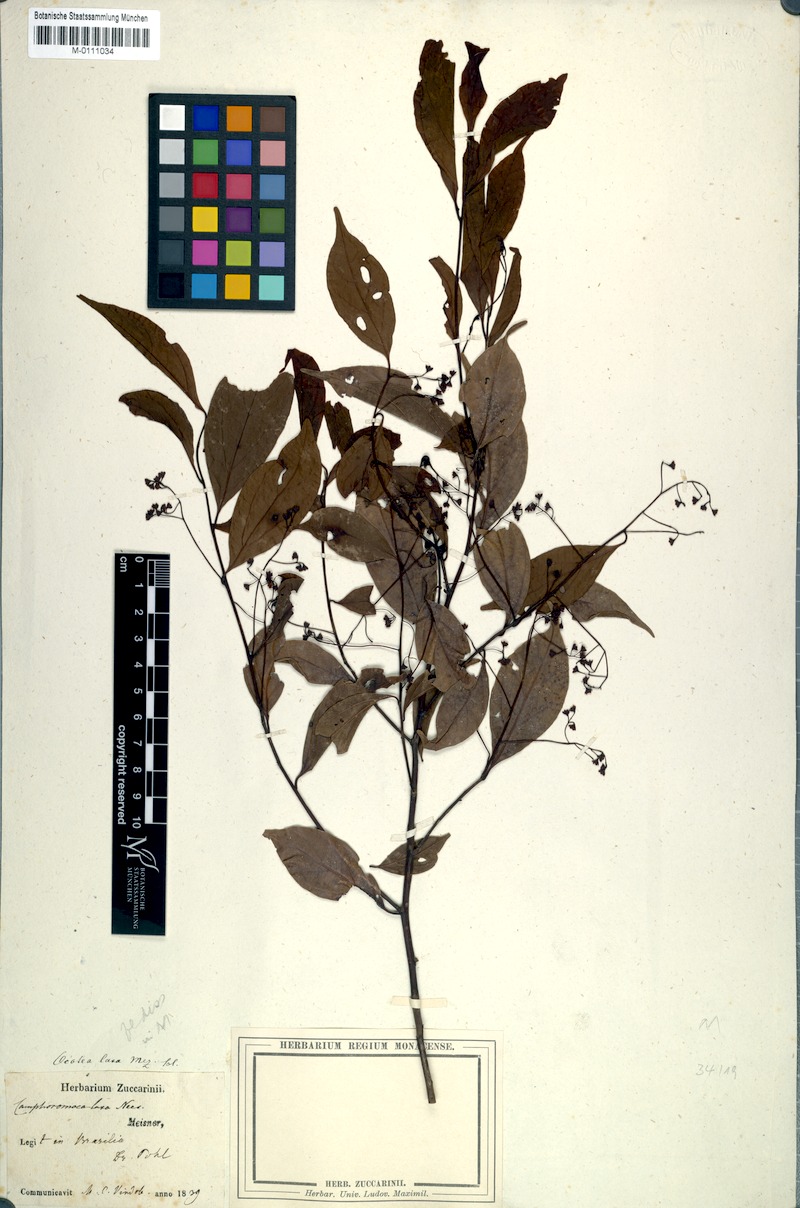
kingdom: Plantae
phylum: Tracheophyta
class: Magnoliopsida
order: Laurales
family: Lauraceae
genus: Ocotea
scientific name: Ocotea laxa
